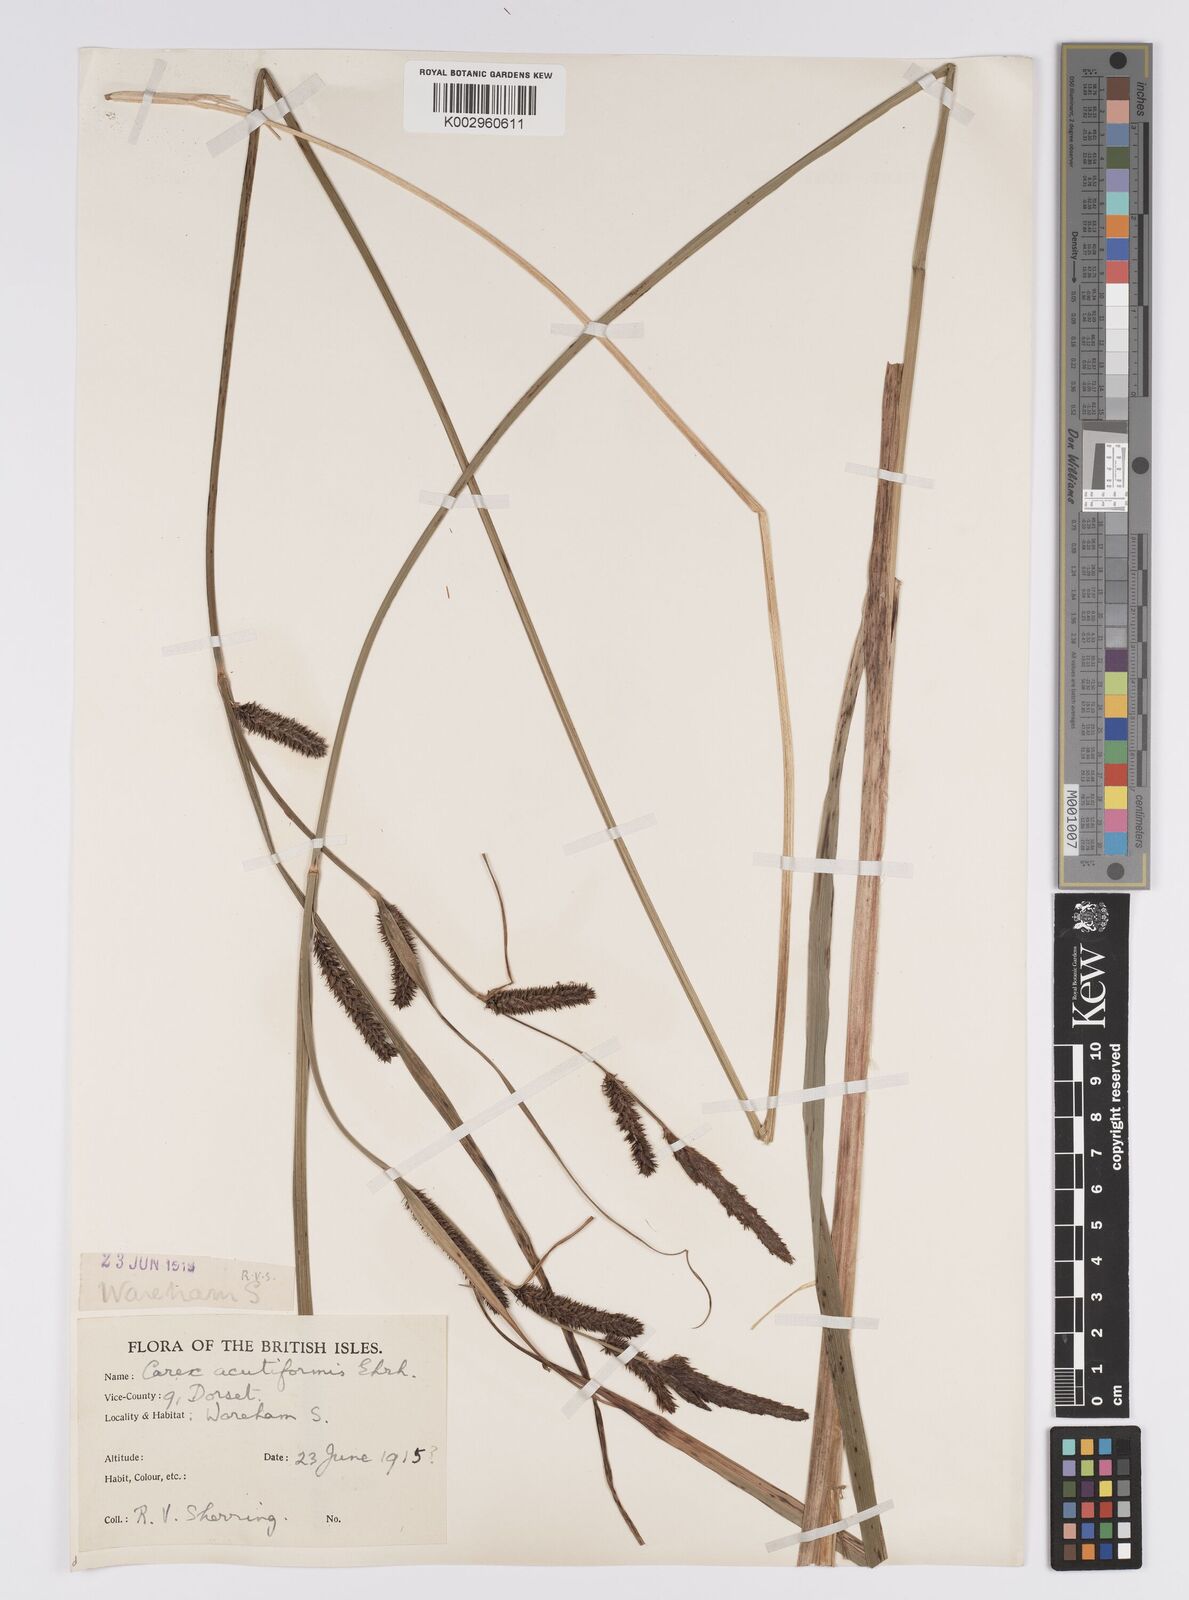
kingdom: Plantae
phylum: Tracheophyta
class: Liliopsida
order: Poales
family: Cyperaceae
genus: Carex
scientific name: Carex acutiformis
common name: Lesser pond-sedge
